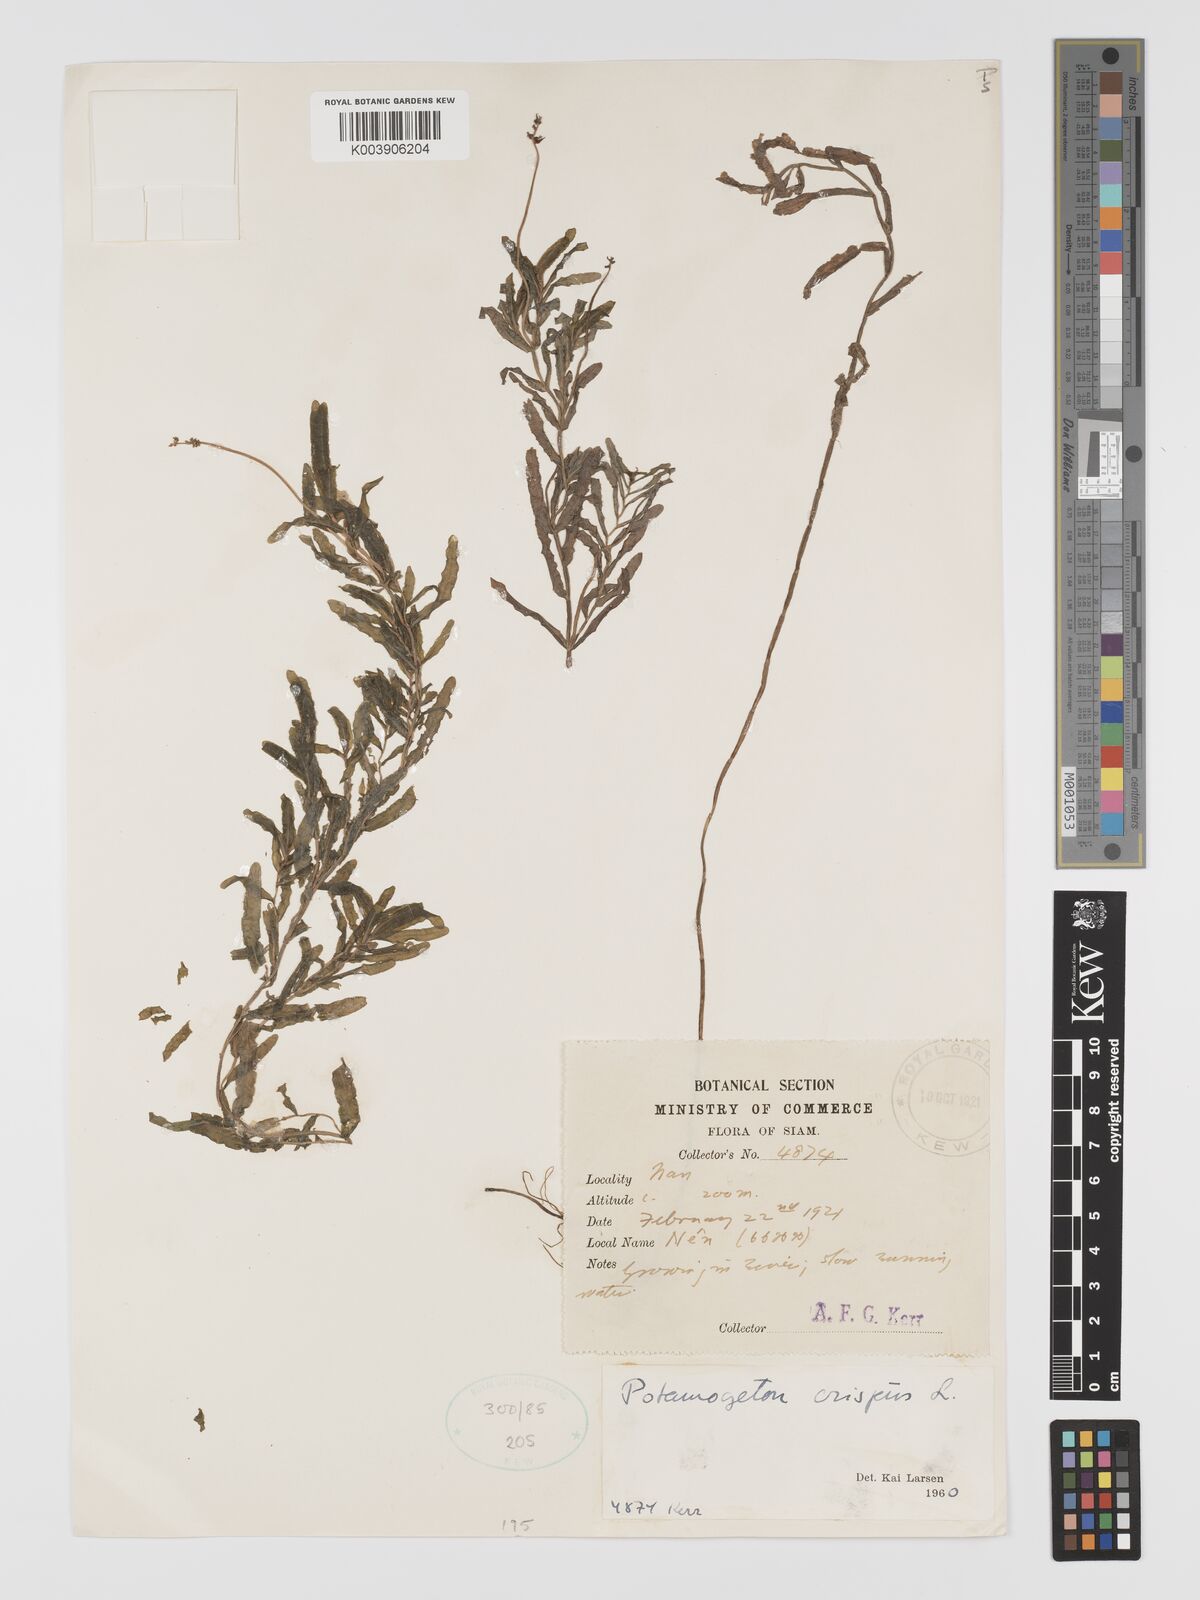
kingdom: Plantae
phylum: Tracheophyta
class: Liliopsida
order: Alismatales
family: Potamogetonaceae
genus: Potamogeton
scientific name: Potamogeton crispus
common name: Curled pondweed
